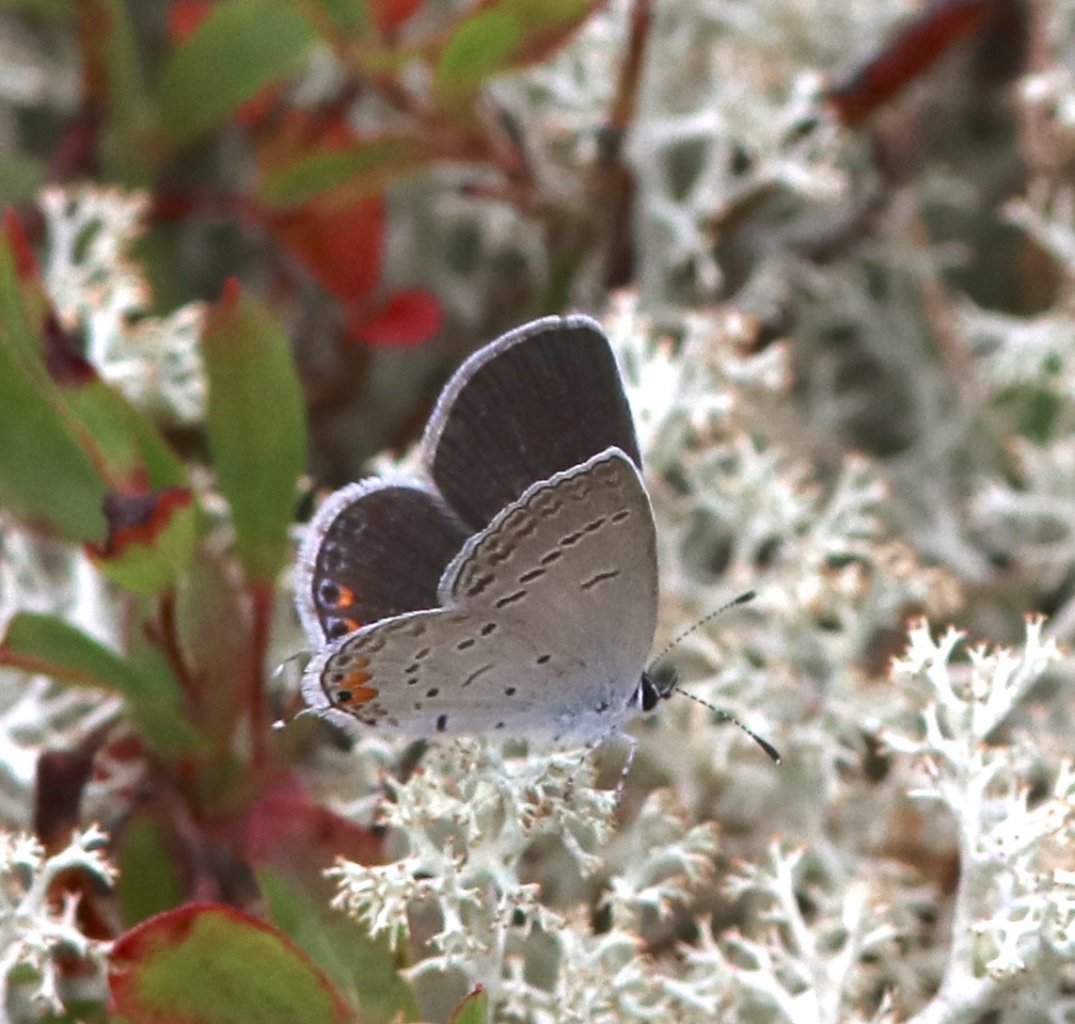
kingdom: Animalia
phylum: Arthropoda
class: Insecta
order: Lepidoptera
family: Lycaenidae
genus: Elkalyce
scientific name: Elkalyce comyntas
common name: Eastern Tailed-Blue
